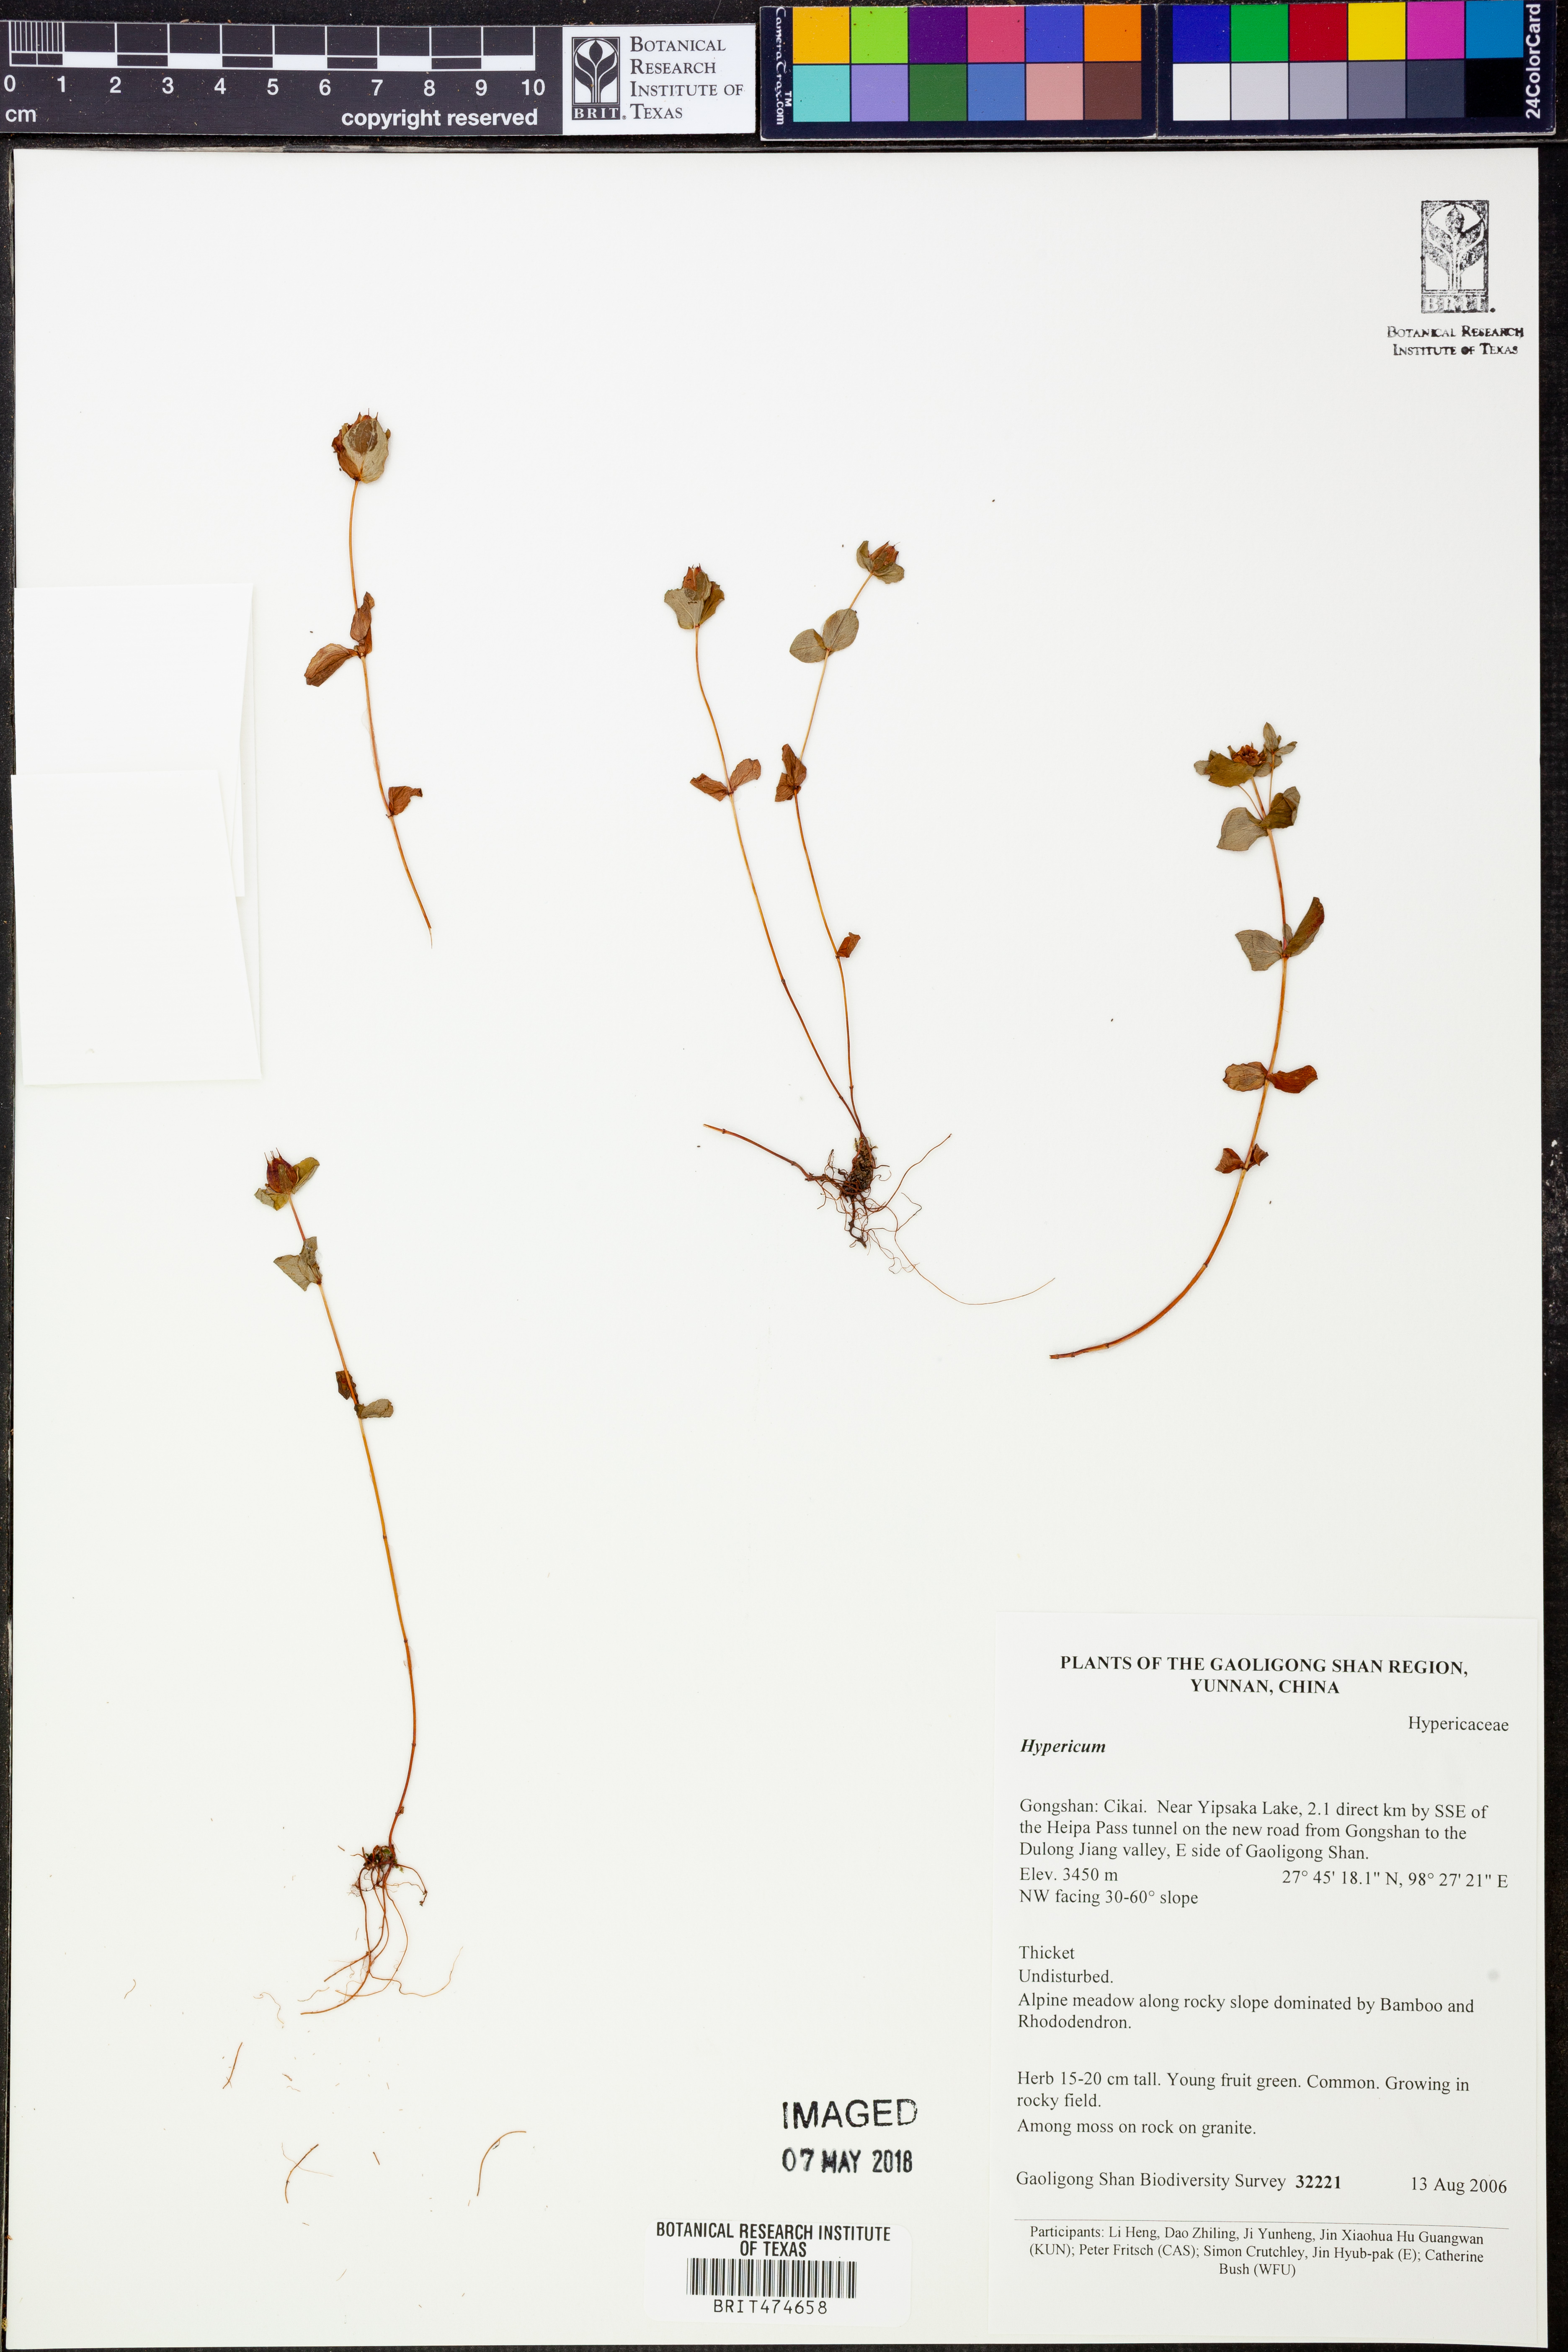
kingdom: Plantae
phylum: Tracheophyta
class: Magnoliopsida
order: Malpighiales
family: Hypericaceae
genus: Hypericum
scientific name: Hypericum
